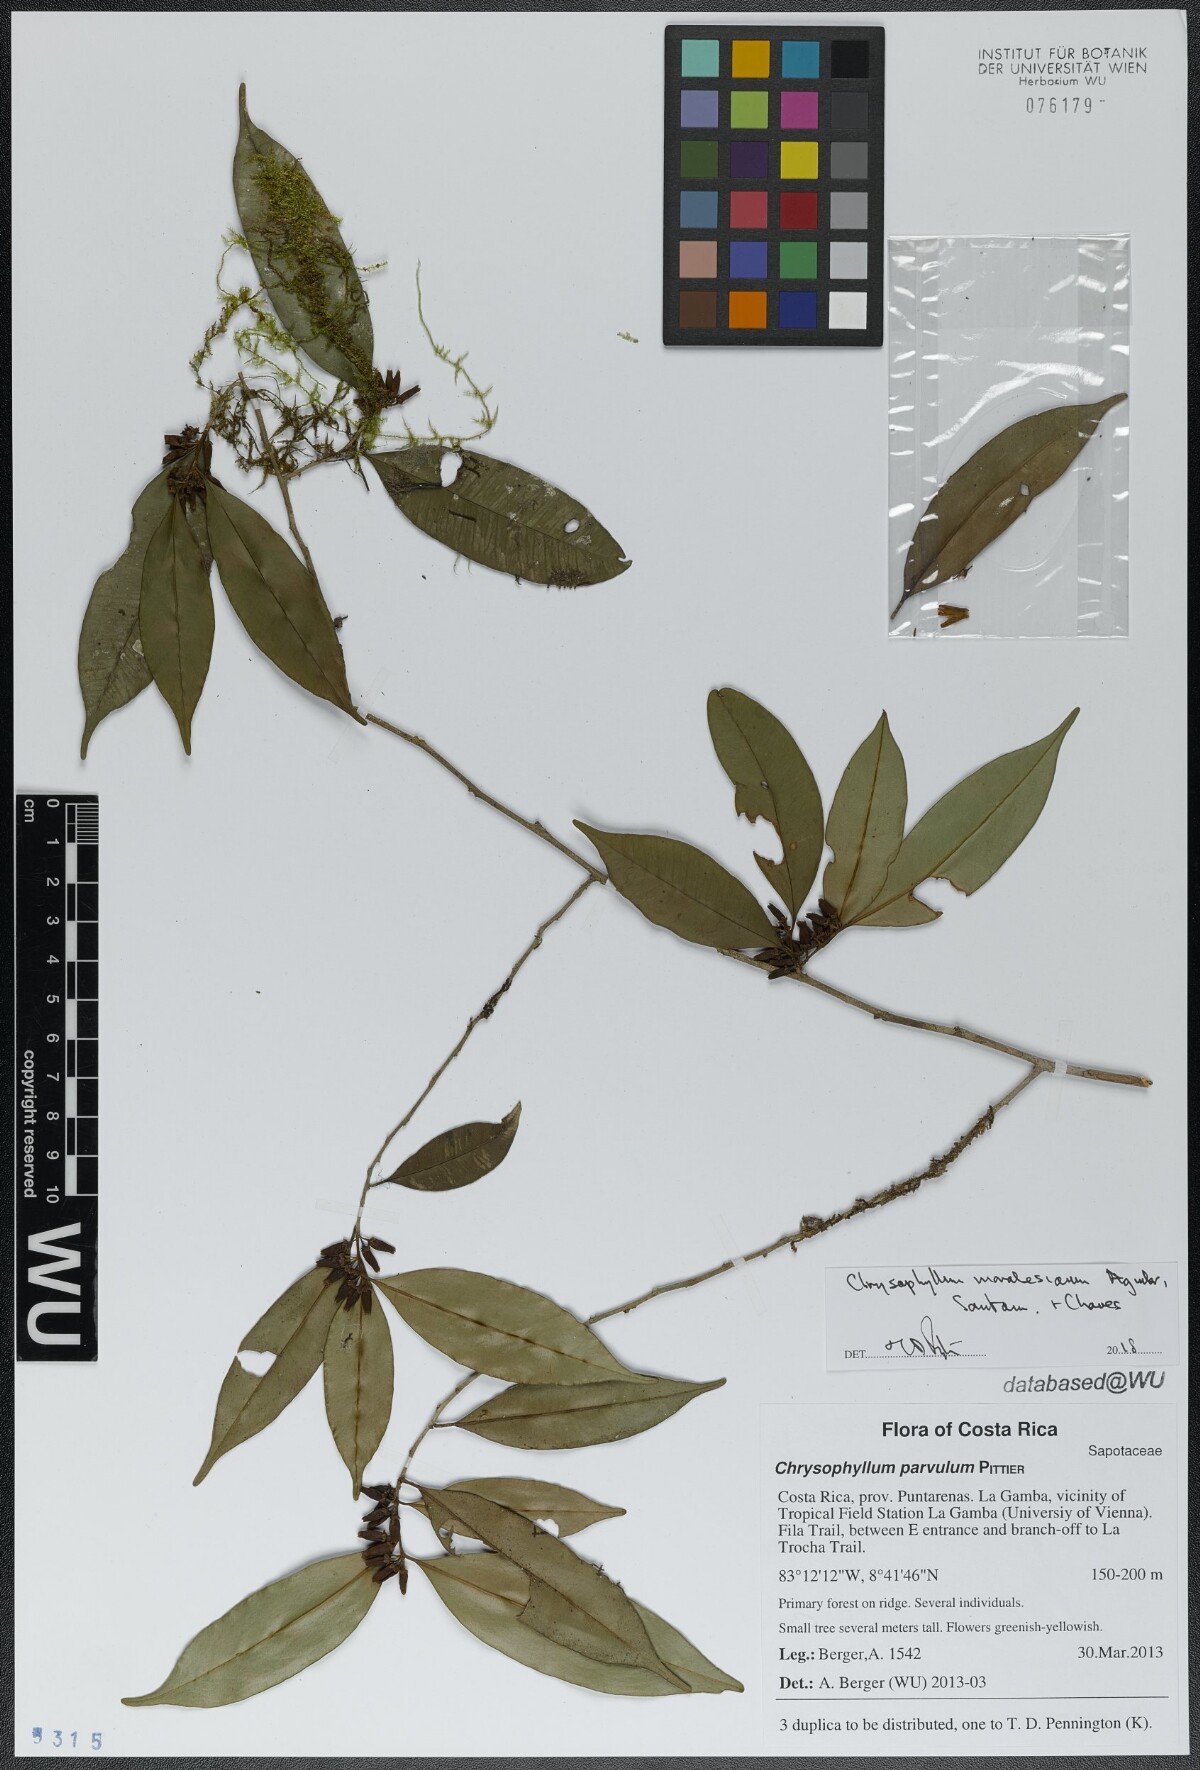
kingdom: Plantae
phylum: Tracheophyta
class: Magnoliopsida
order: Ericales
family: Sapotaceae
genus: Chrysophyllum
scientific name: Chrysophyllum moralesianum
